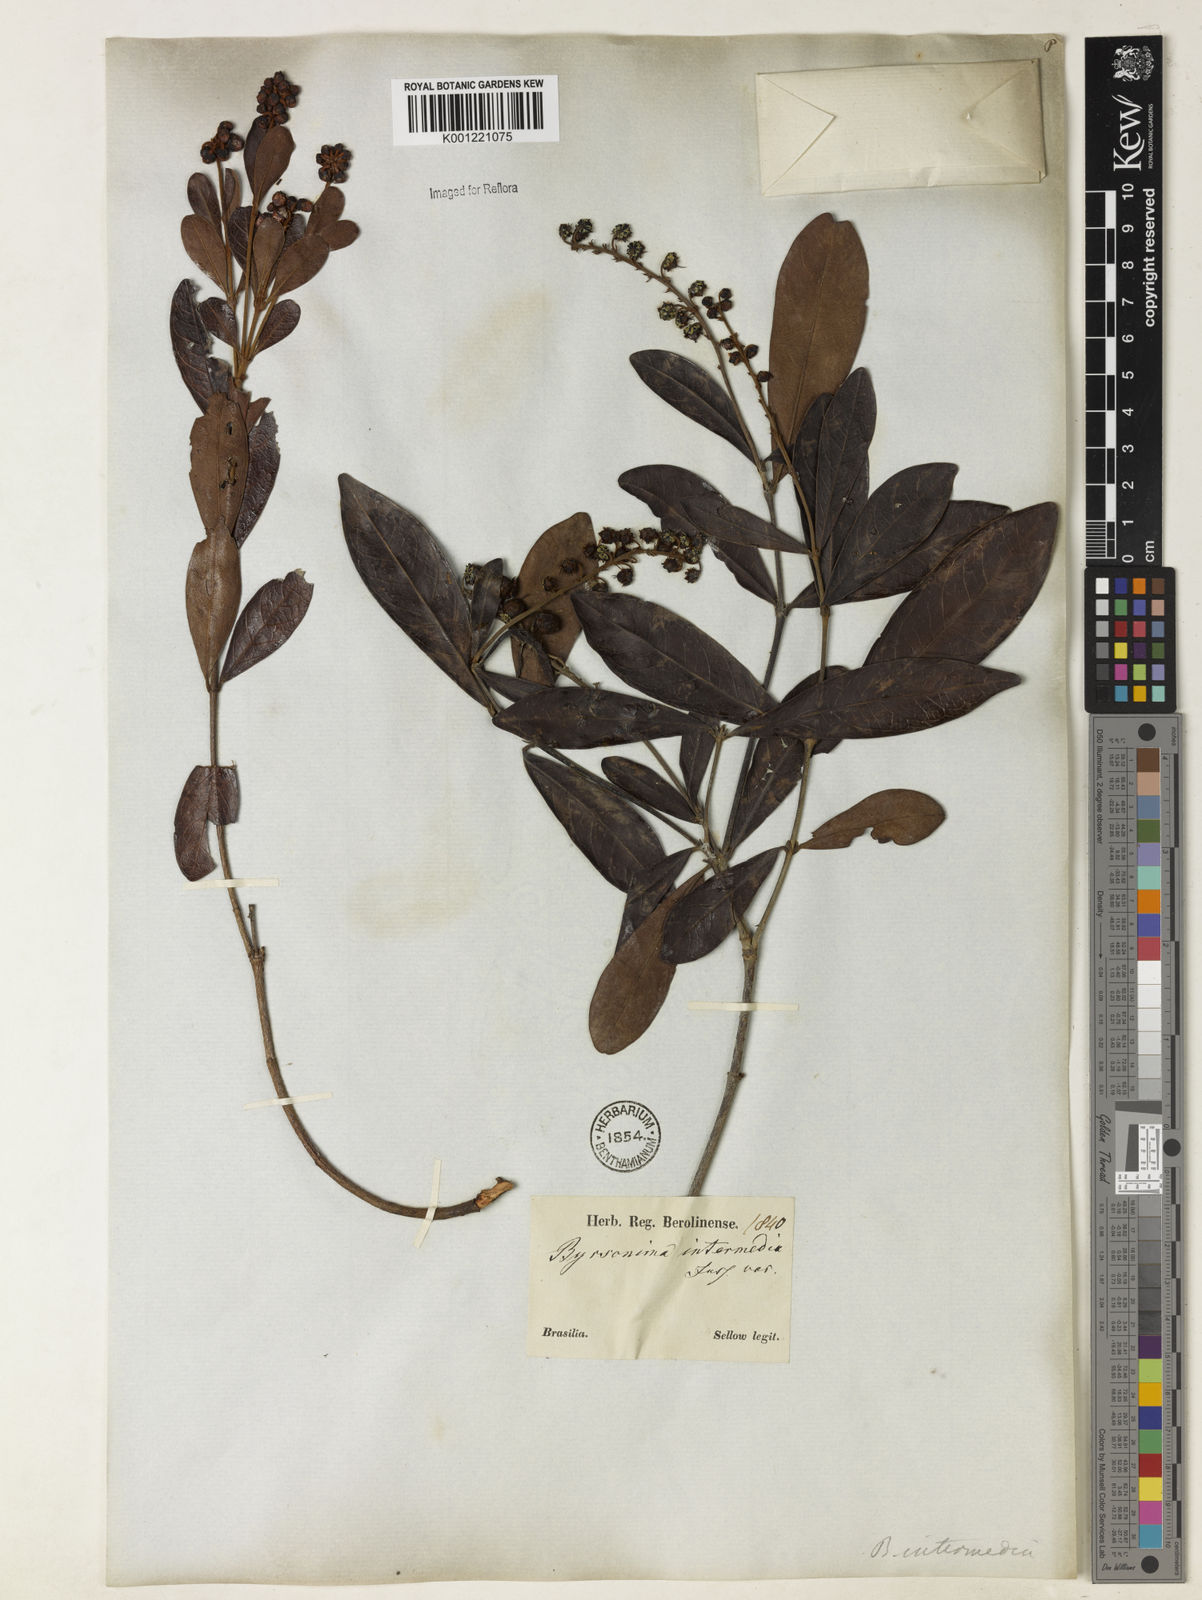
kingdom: Plantae
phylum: Tracheophyta
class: Magnoliopsida
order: Malpighiales
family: Malpighiaceae
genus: Byrsonima
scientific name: Byrsonima intermedia
